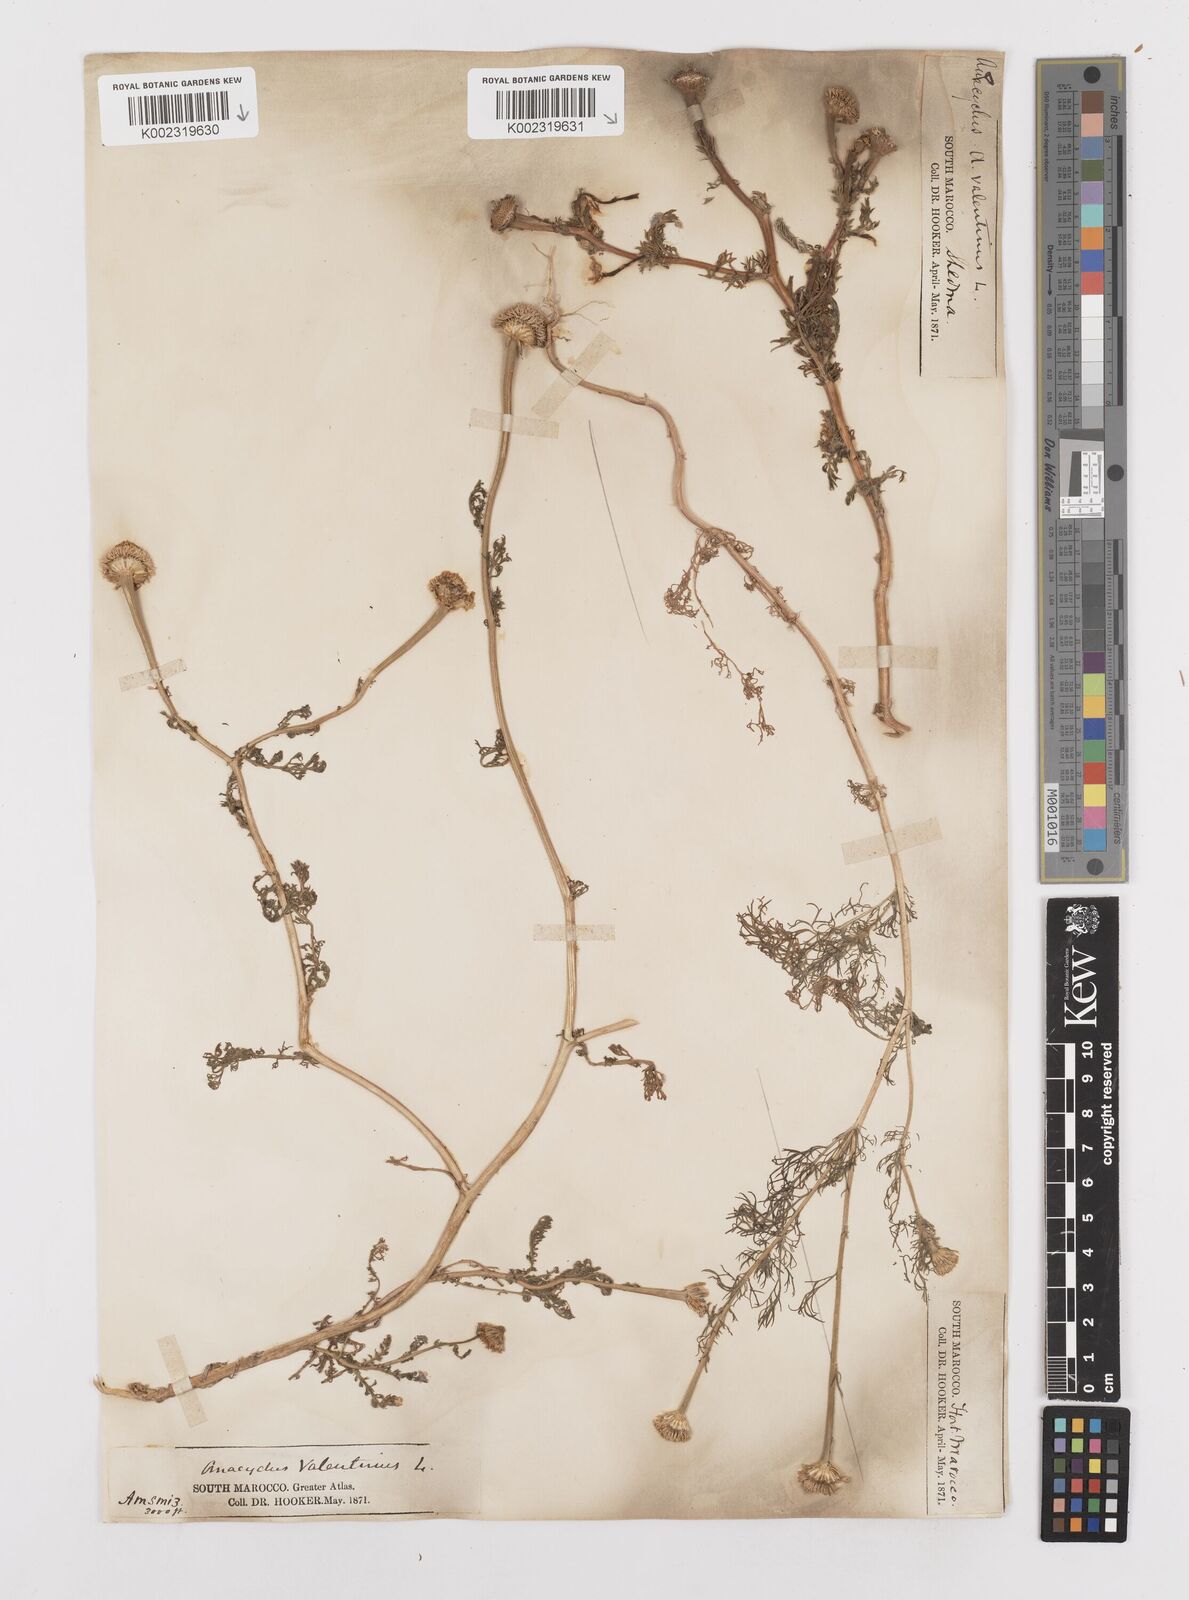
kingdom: Plantae
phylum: Tracheophyta
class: Magnoliopsida
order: Asterales
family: Asteraceae
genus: Anacyclus
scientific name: Anacyclus valentinus
